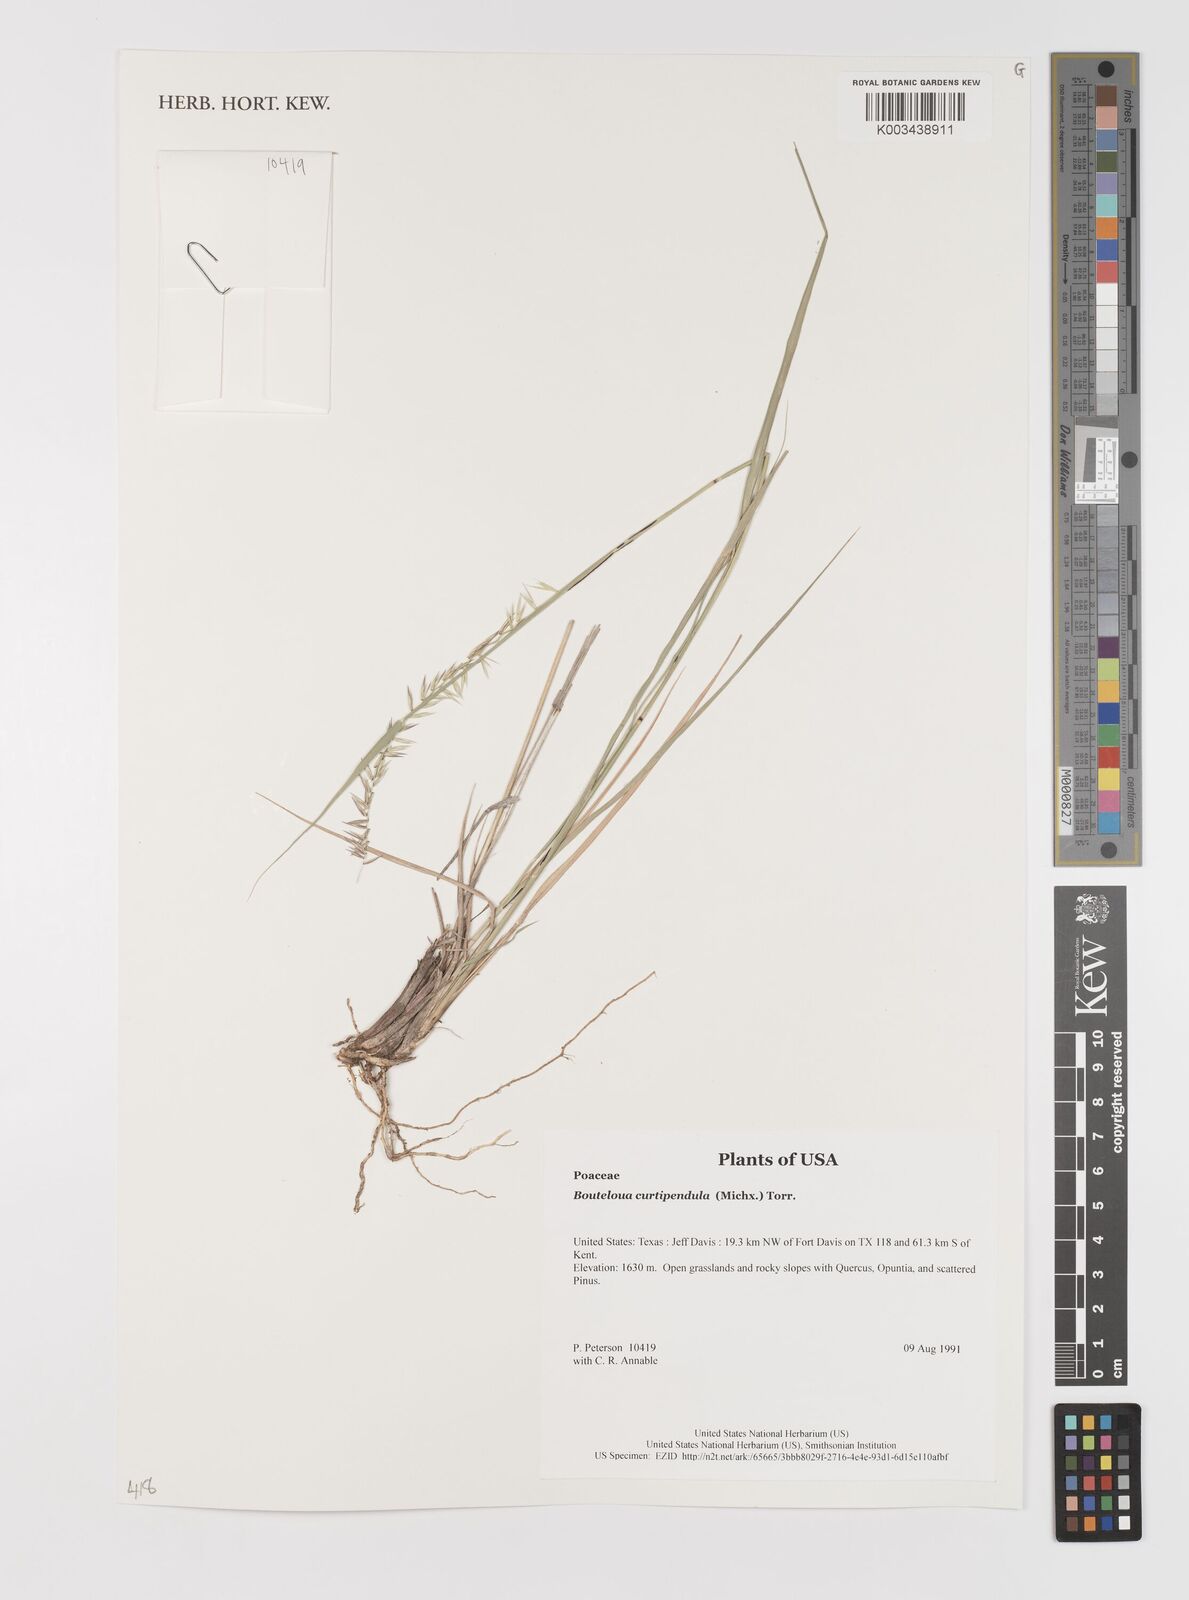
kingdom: Plantae
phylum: Tracheophyta
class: Liliopsida
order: Poales
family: Poaceae
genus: Bouteloua
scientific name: Bouteloua curtipendula
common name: Side-oats grama
